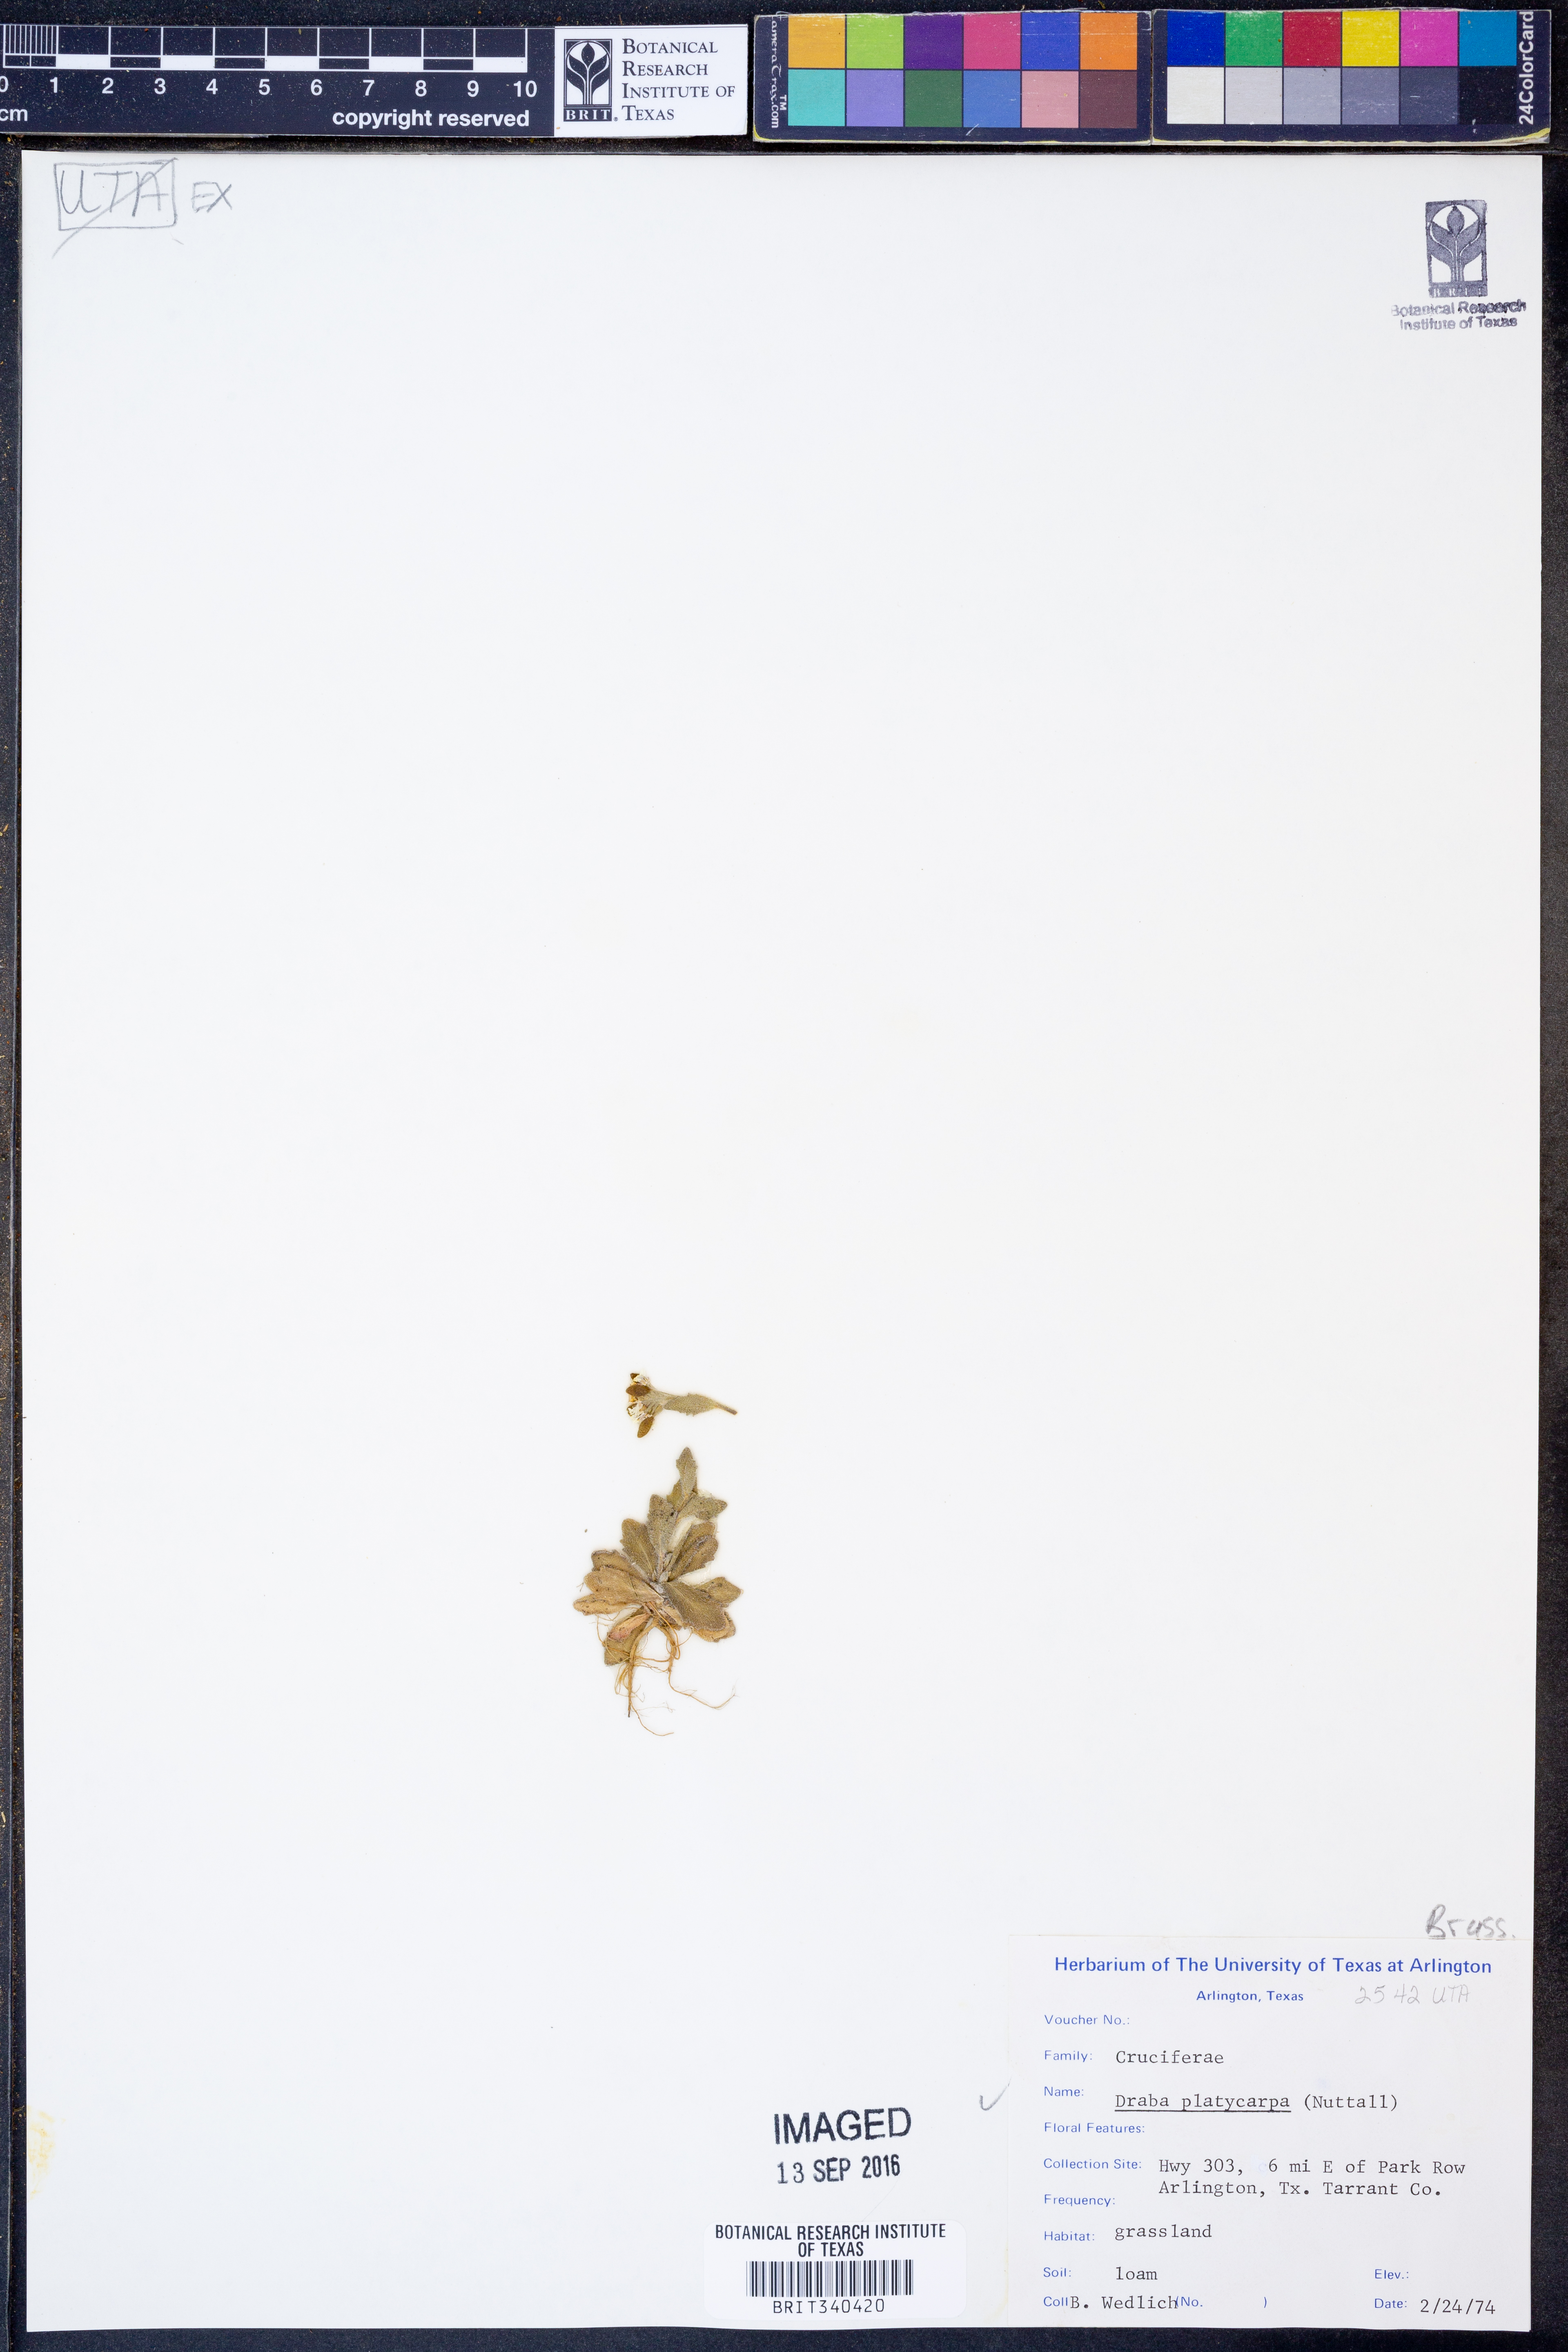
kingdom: Plantae
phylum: Tracheophyta
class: Magnoliopsida
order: Brassicales
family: Brassicaceae
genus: Tomostima
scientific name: Tomostima platycarpa
